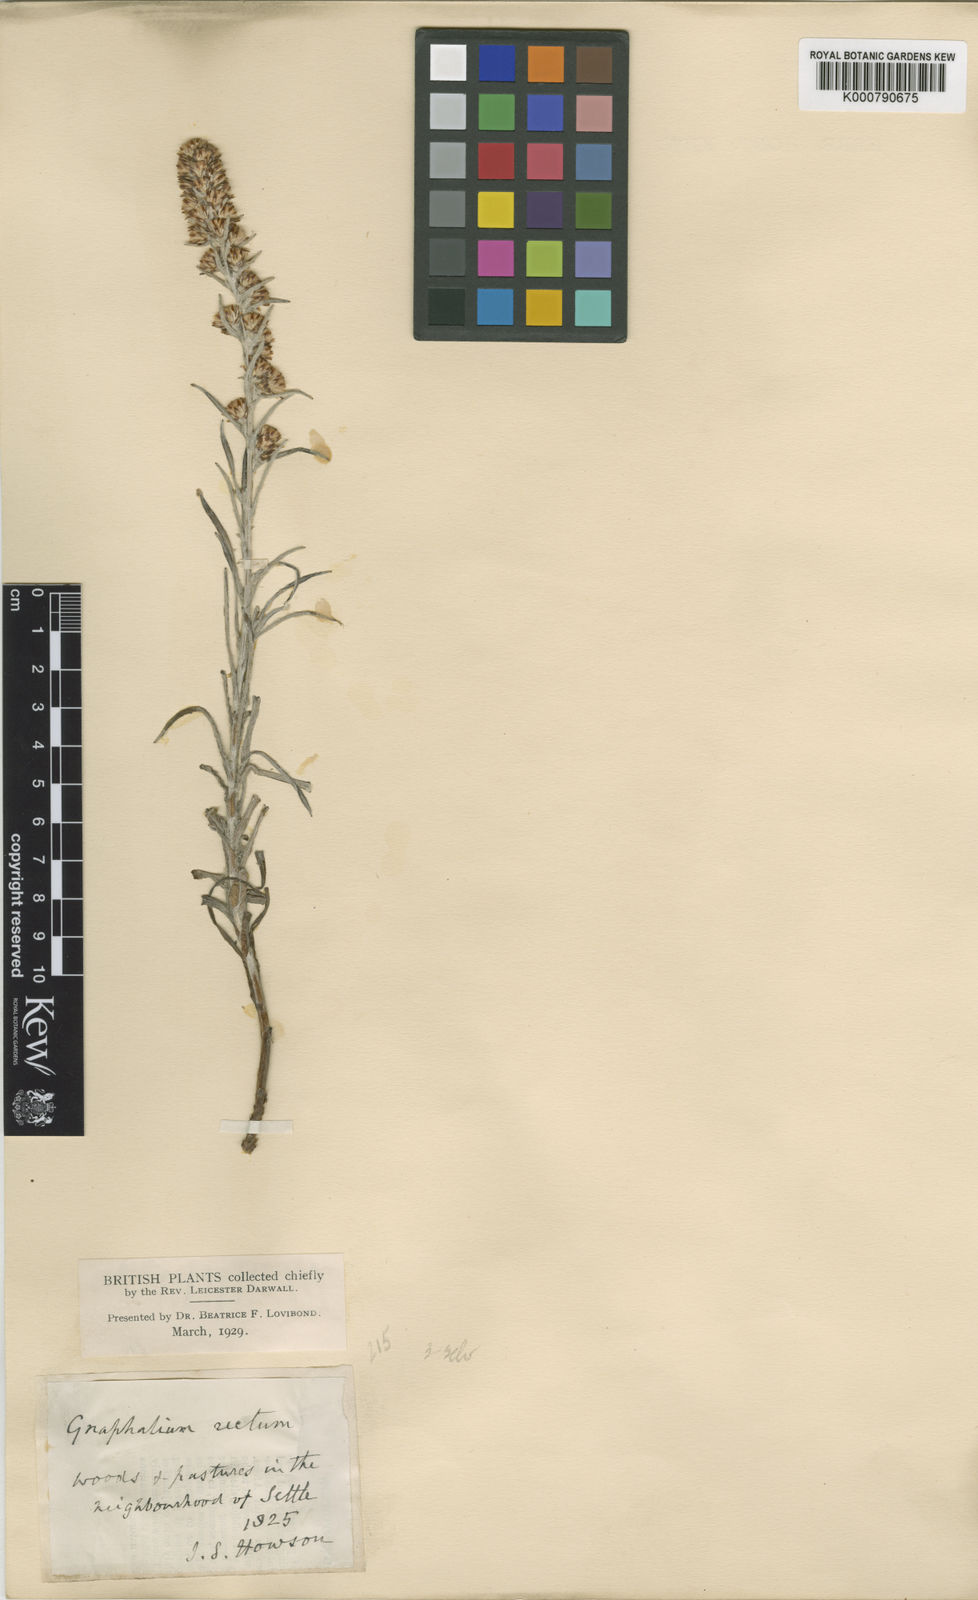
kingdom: Plantae
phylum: Tracheophyta
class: Magnoliopsida
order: Asterales
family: Asteraceae
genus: Omalotheca
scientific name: Omalotheca sylvatica
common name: Heath cudweed
